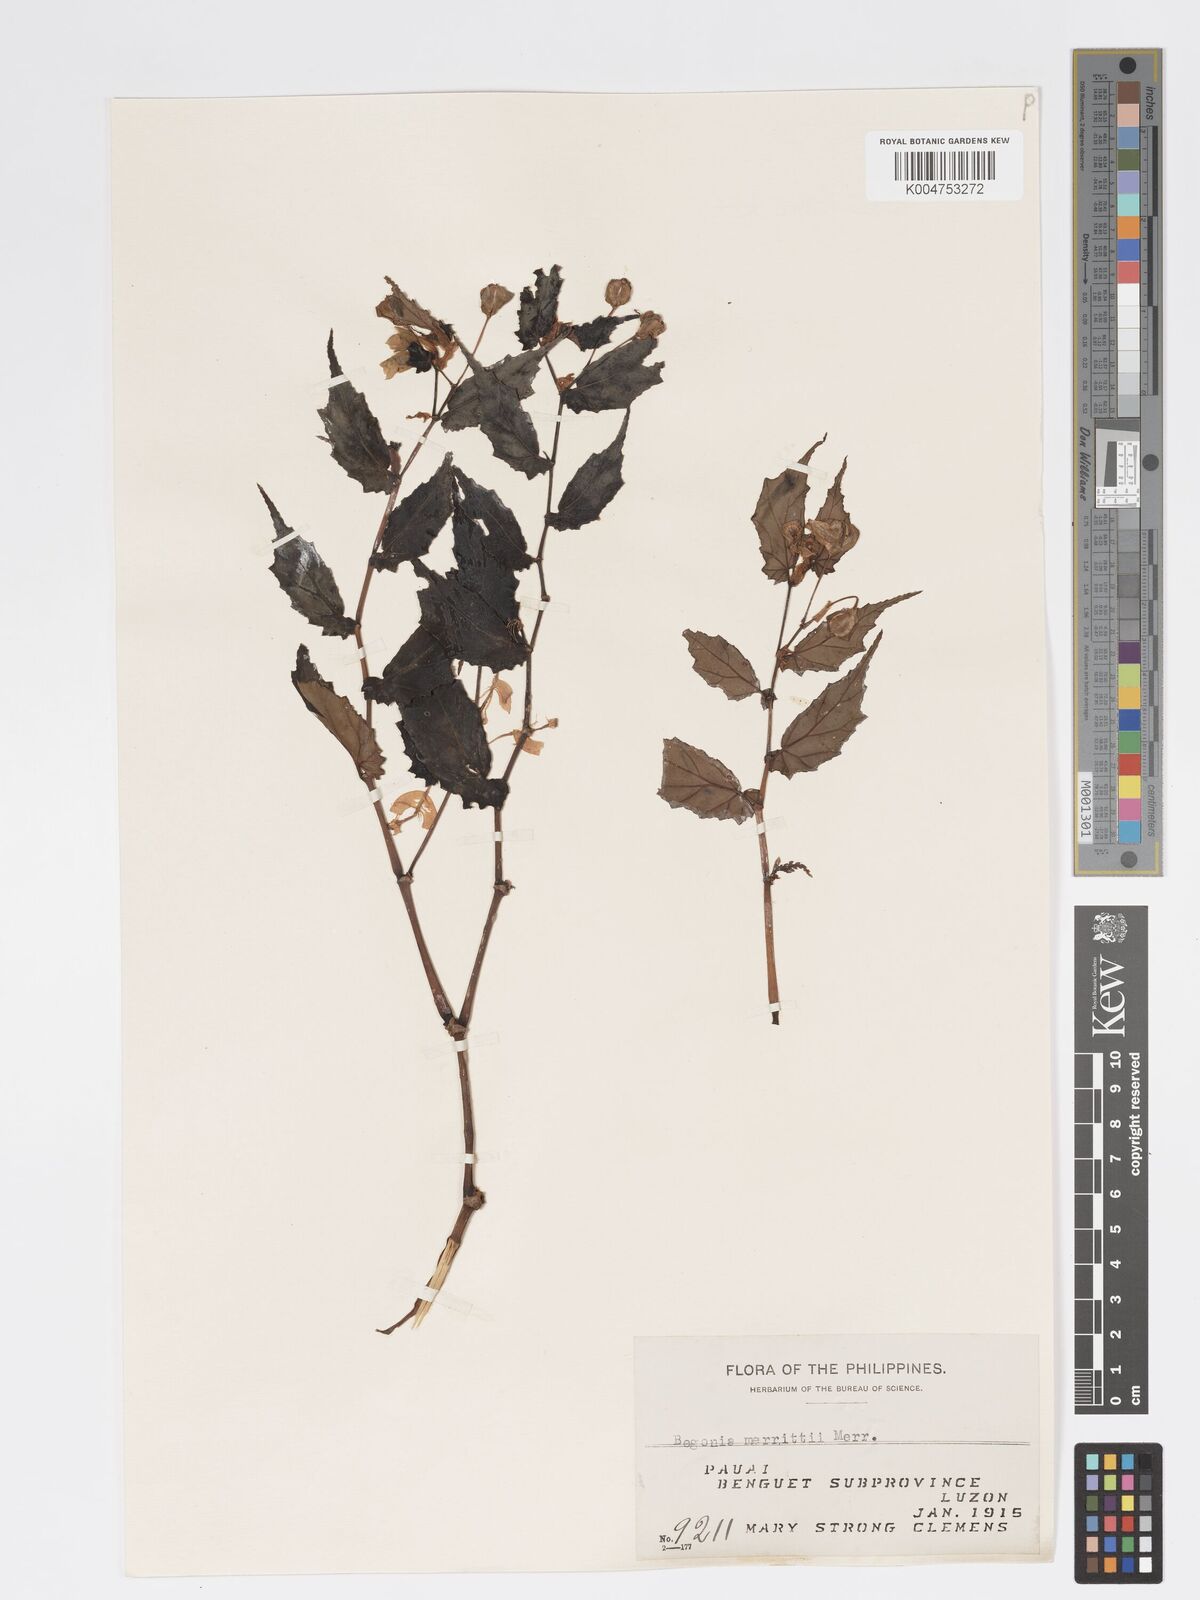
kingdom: Plantae
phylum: Tracheophyta
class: Magnoliopsida
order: Cucurbitales
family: Begoniaceae
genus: Begonia
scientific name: Begonia merrittii
